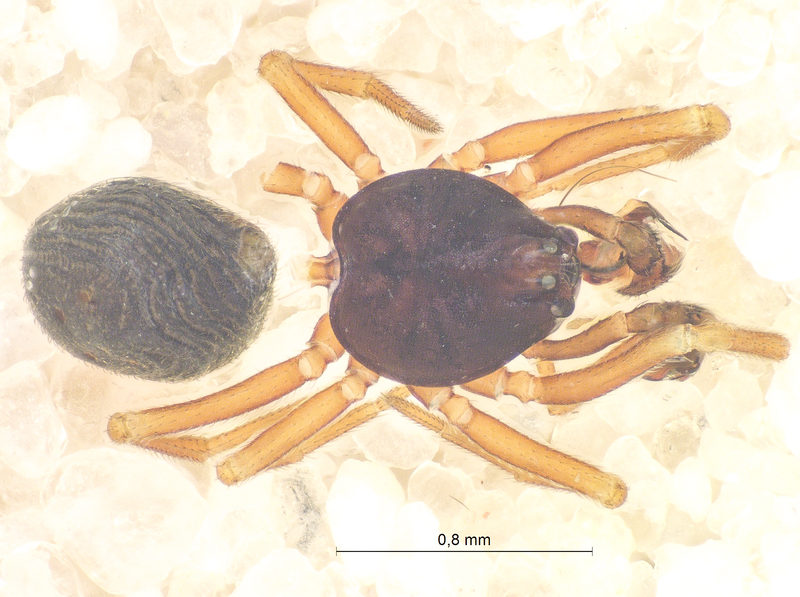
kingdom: Animalia
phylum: Arthropoda
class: Arachnida
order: Araneae
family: Linyphiidae
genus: Cnephalocotes
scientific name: Cnephalocotes obscurus
